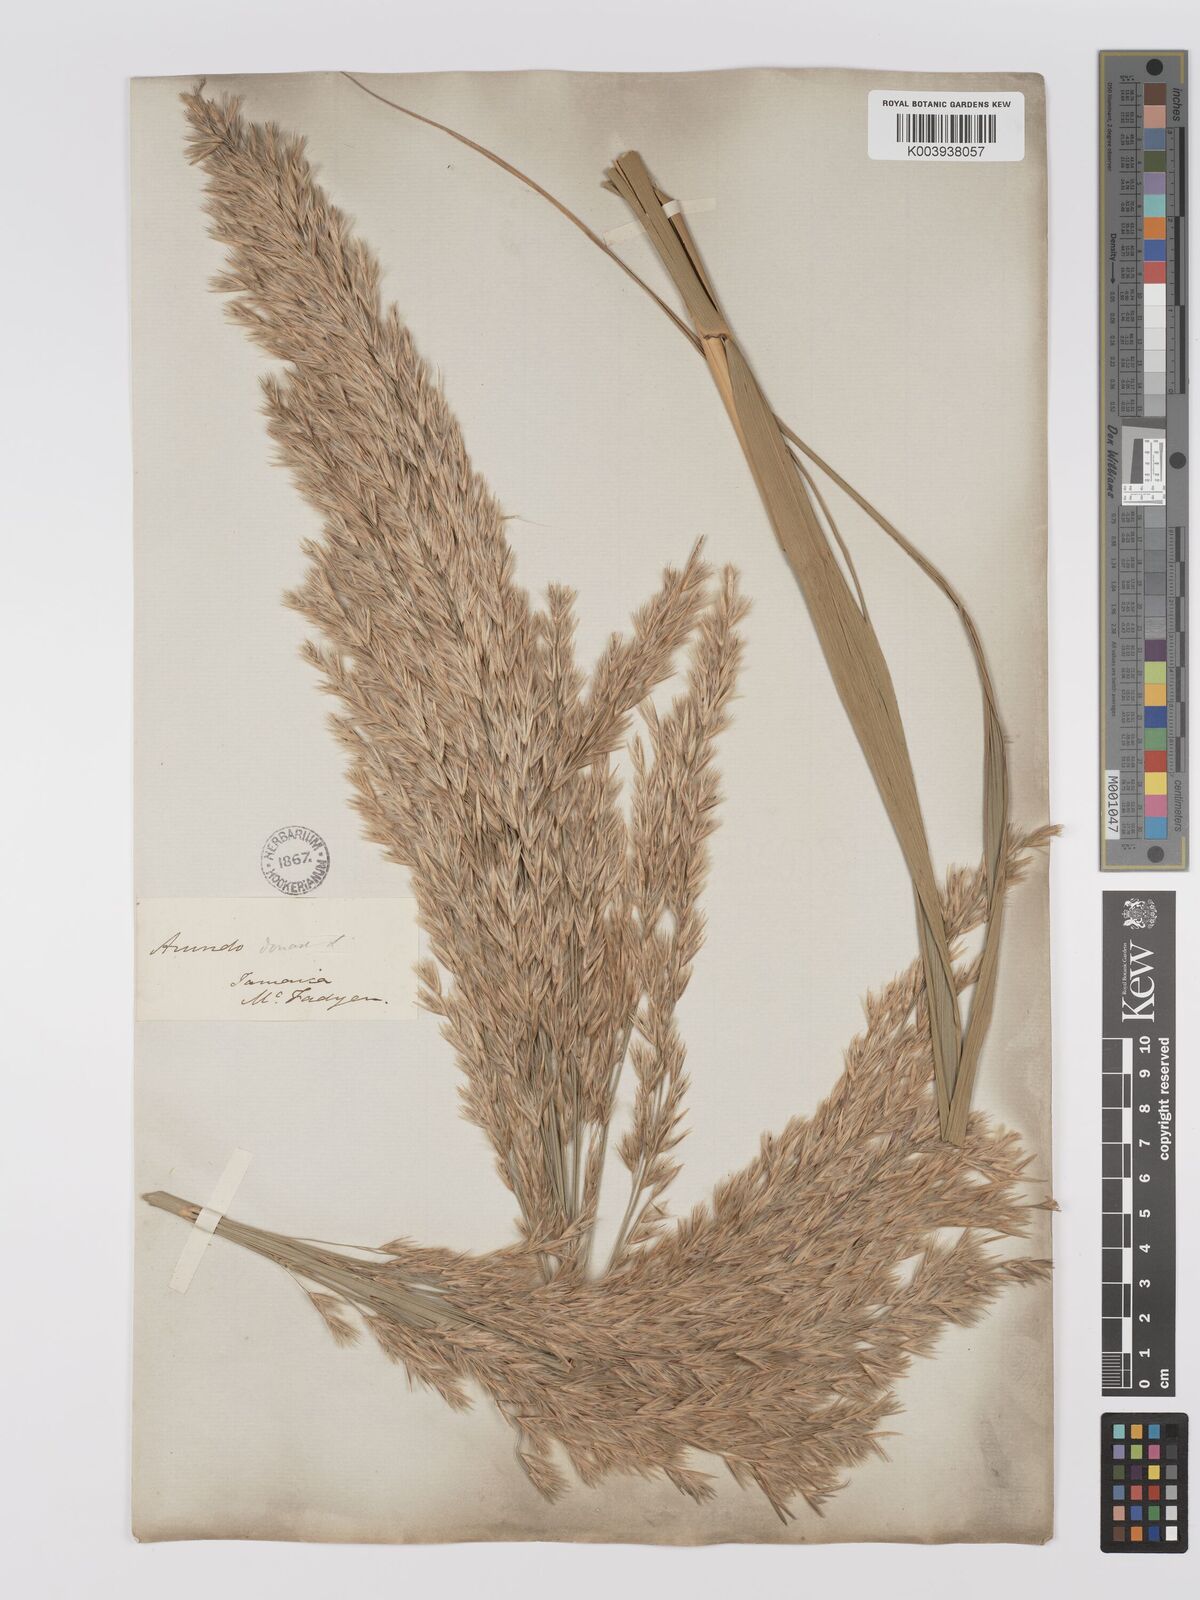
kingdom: Plantae
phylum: Tracheophyta
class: Liliopsida
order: Poales
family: Poaceae
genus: Arundo
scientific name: Arundo donax
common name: Giant reed
